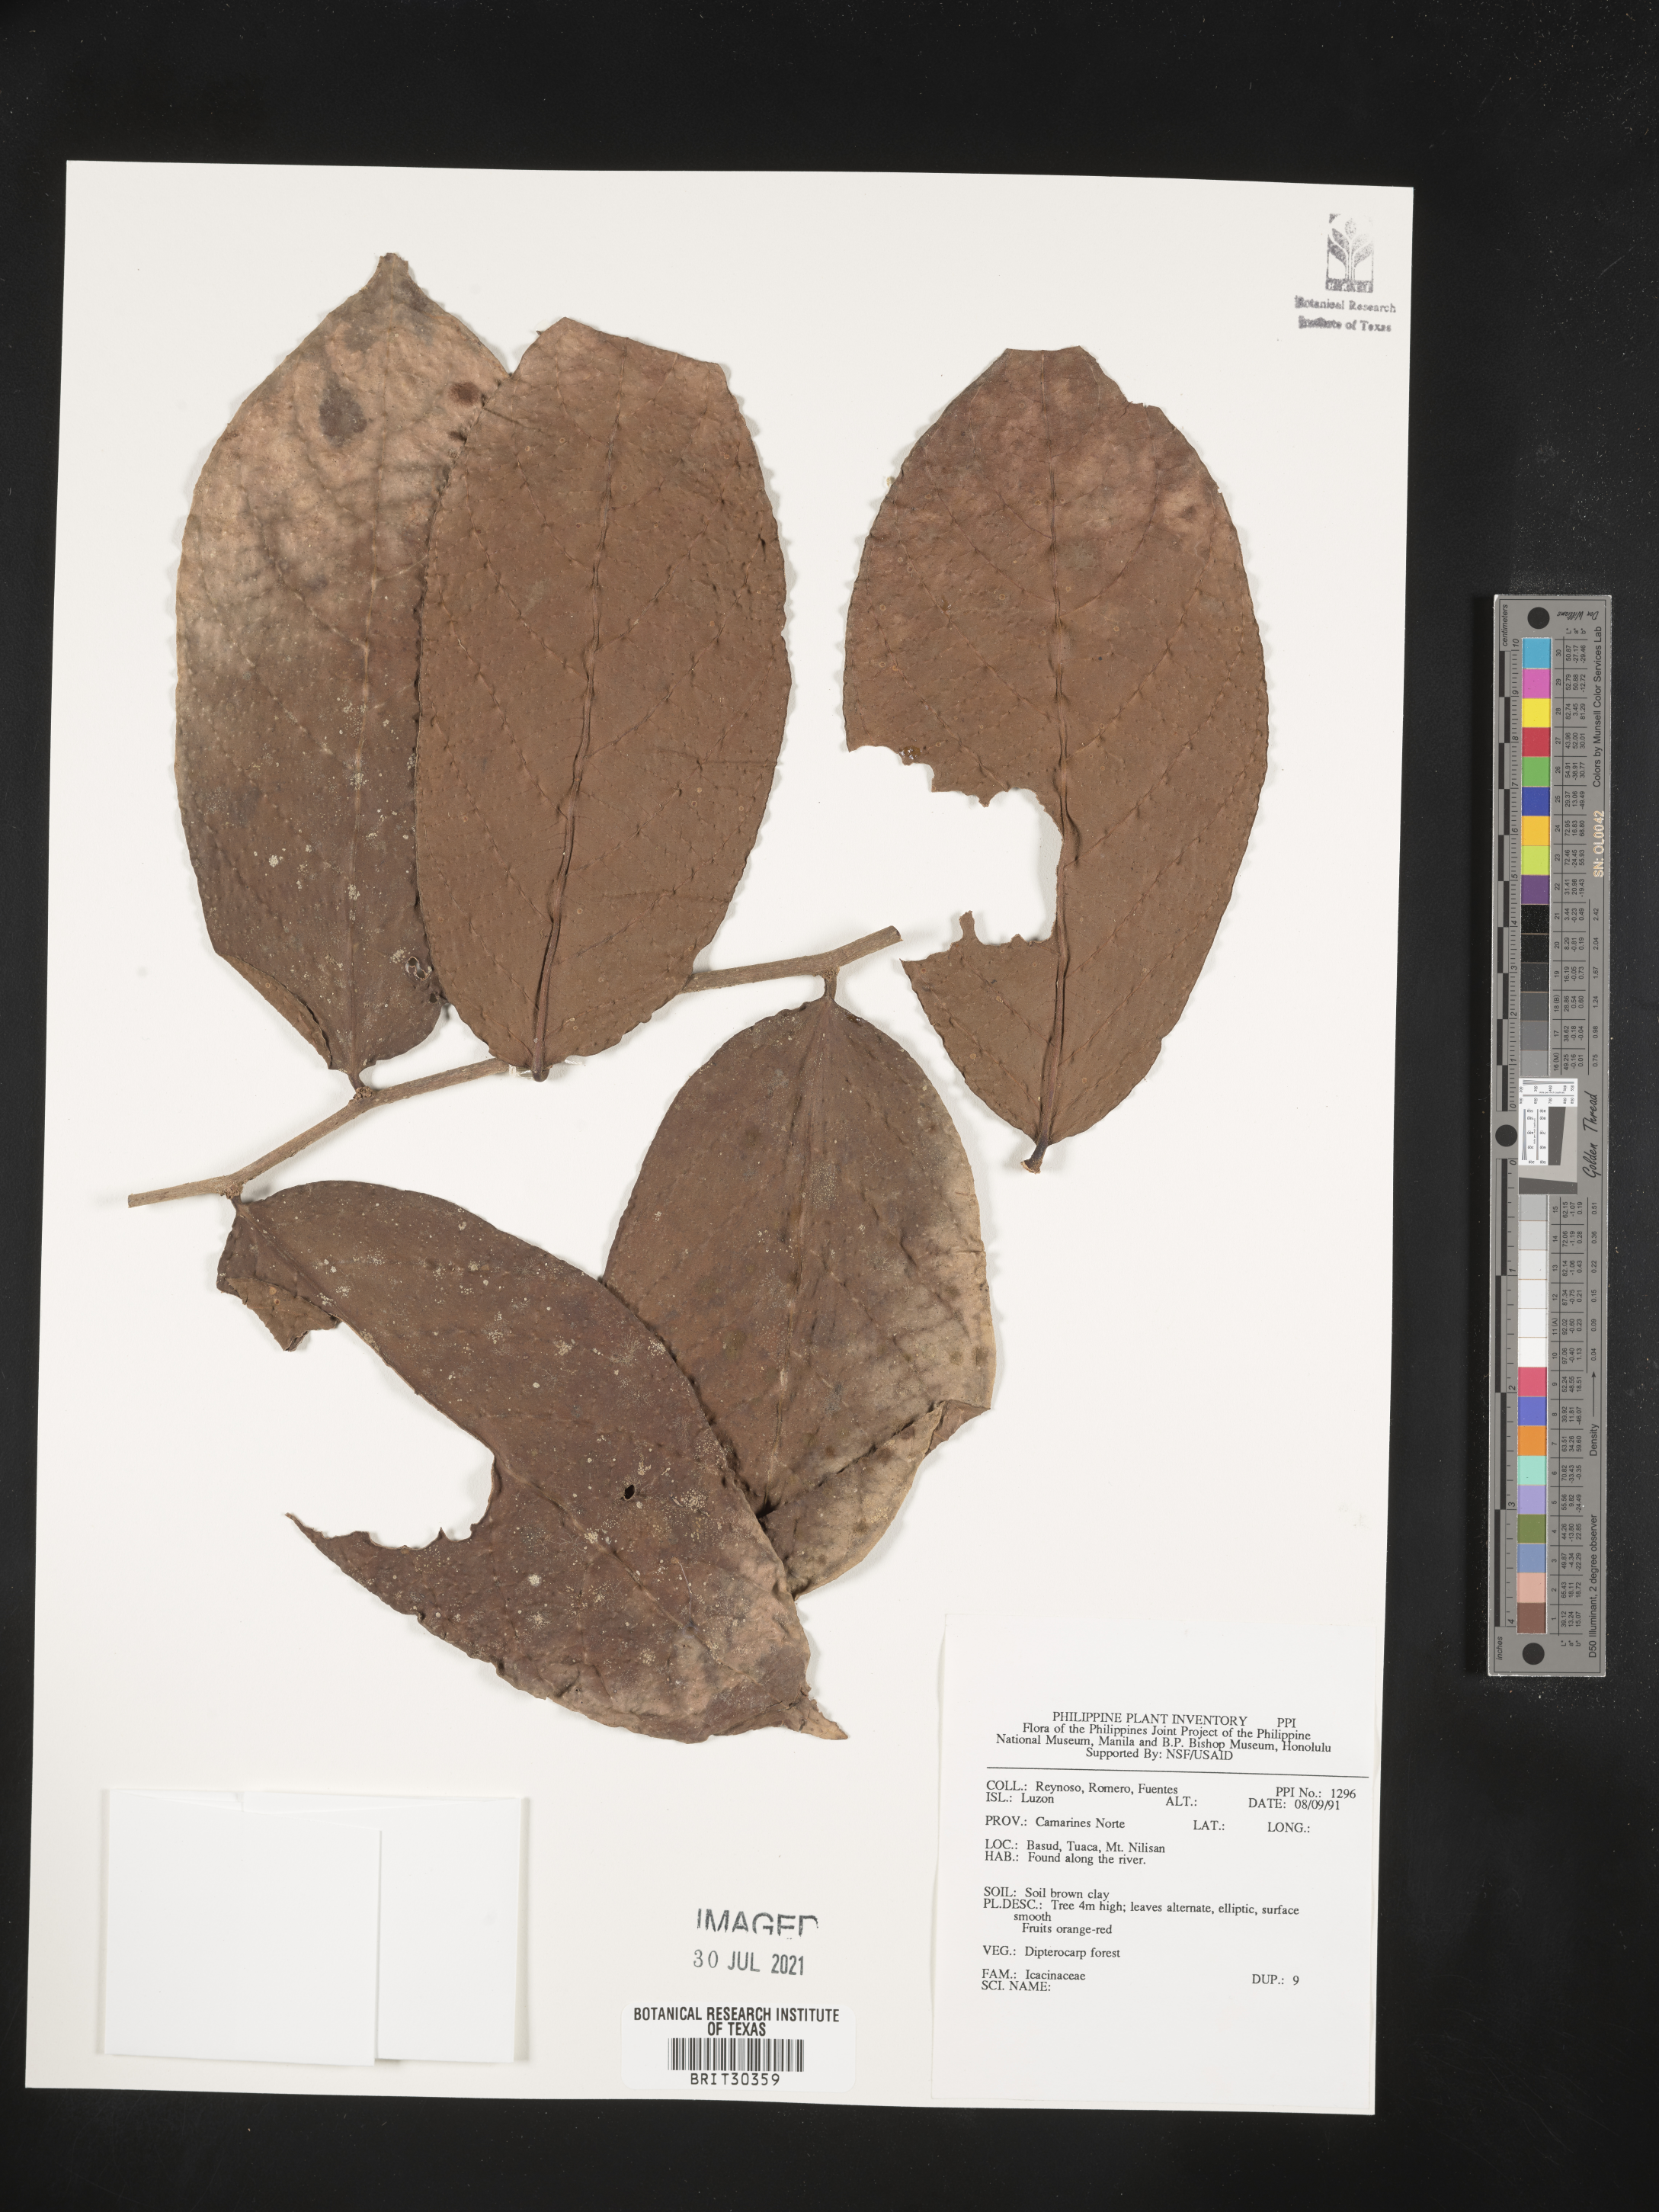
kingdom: Plantae
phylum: Tracheophyta
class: Magnoliopsida
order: Icacinales
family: Icacinaceae
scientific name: Icacinaceae
